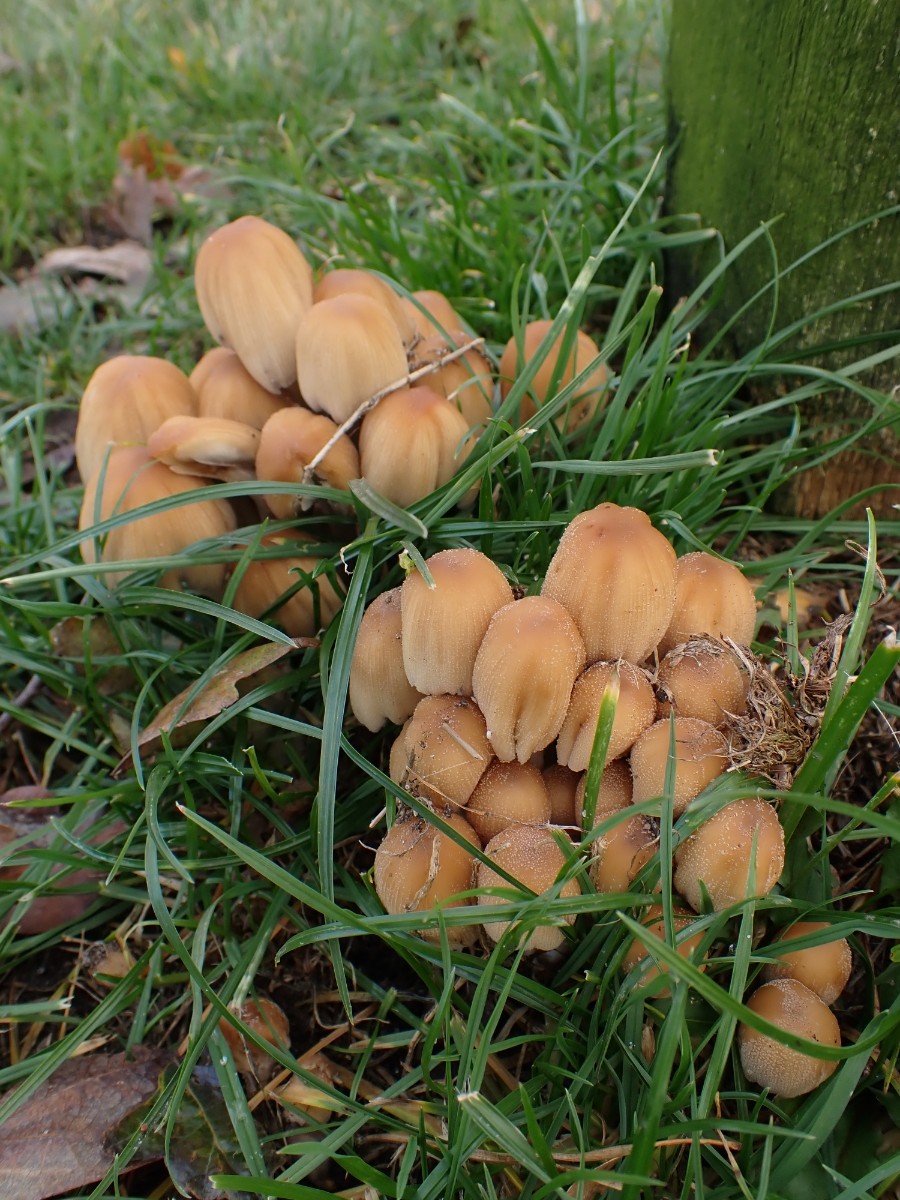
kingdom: Fungi
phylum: Basidiomycota
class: Agaricomycetes
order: Agaricales
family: Psathyrellaceae
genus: Coprinellus
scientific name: Coprinellus micaceus
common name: glimmer-blækhat
